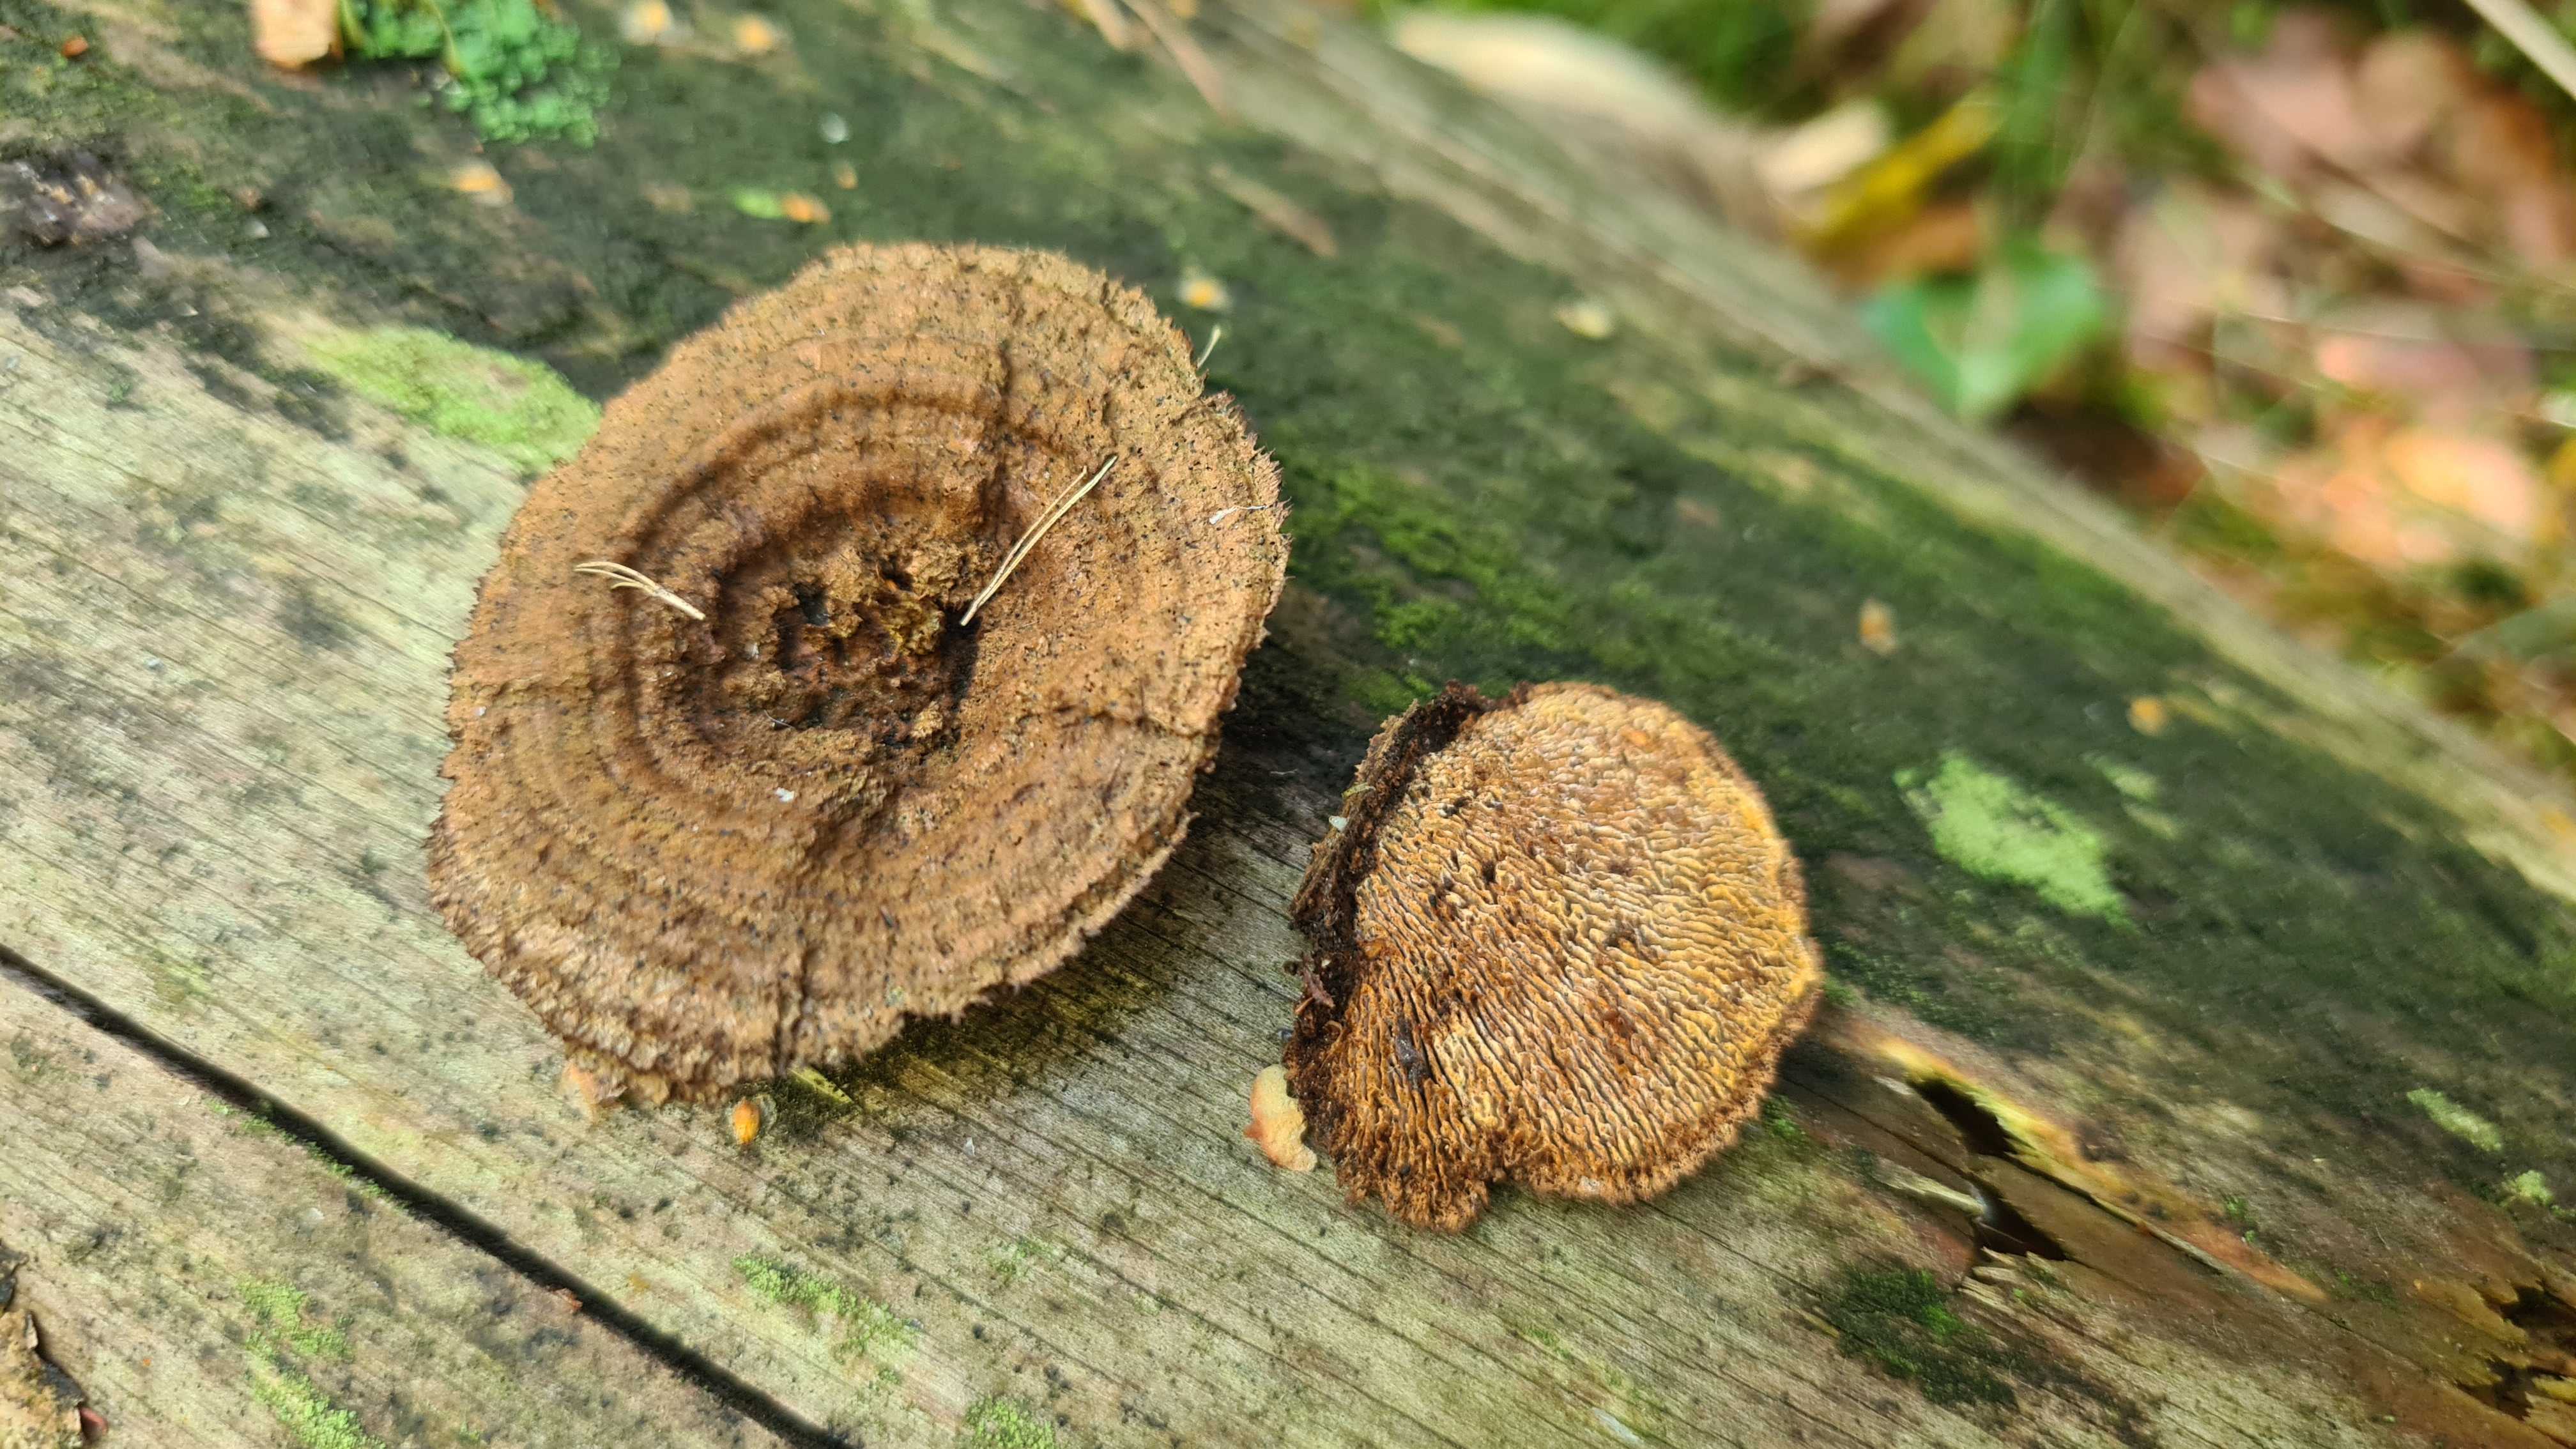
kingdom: Fungi
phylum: Basidiomycota
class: Agaricomycetes
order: Gloeophyllales
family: Gloeophyllaceae
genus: Gloeophyllum
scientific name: Gloeophyllum sepiarium
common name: fyrre-korkhat
